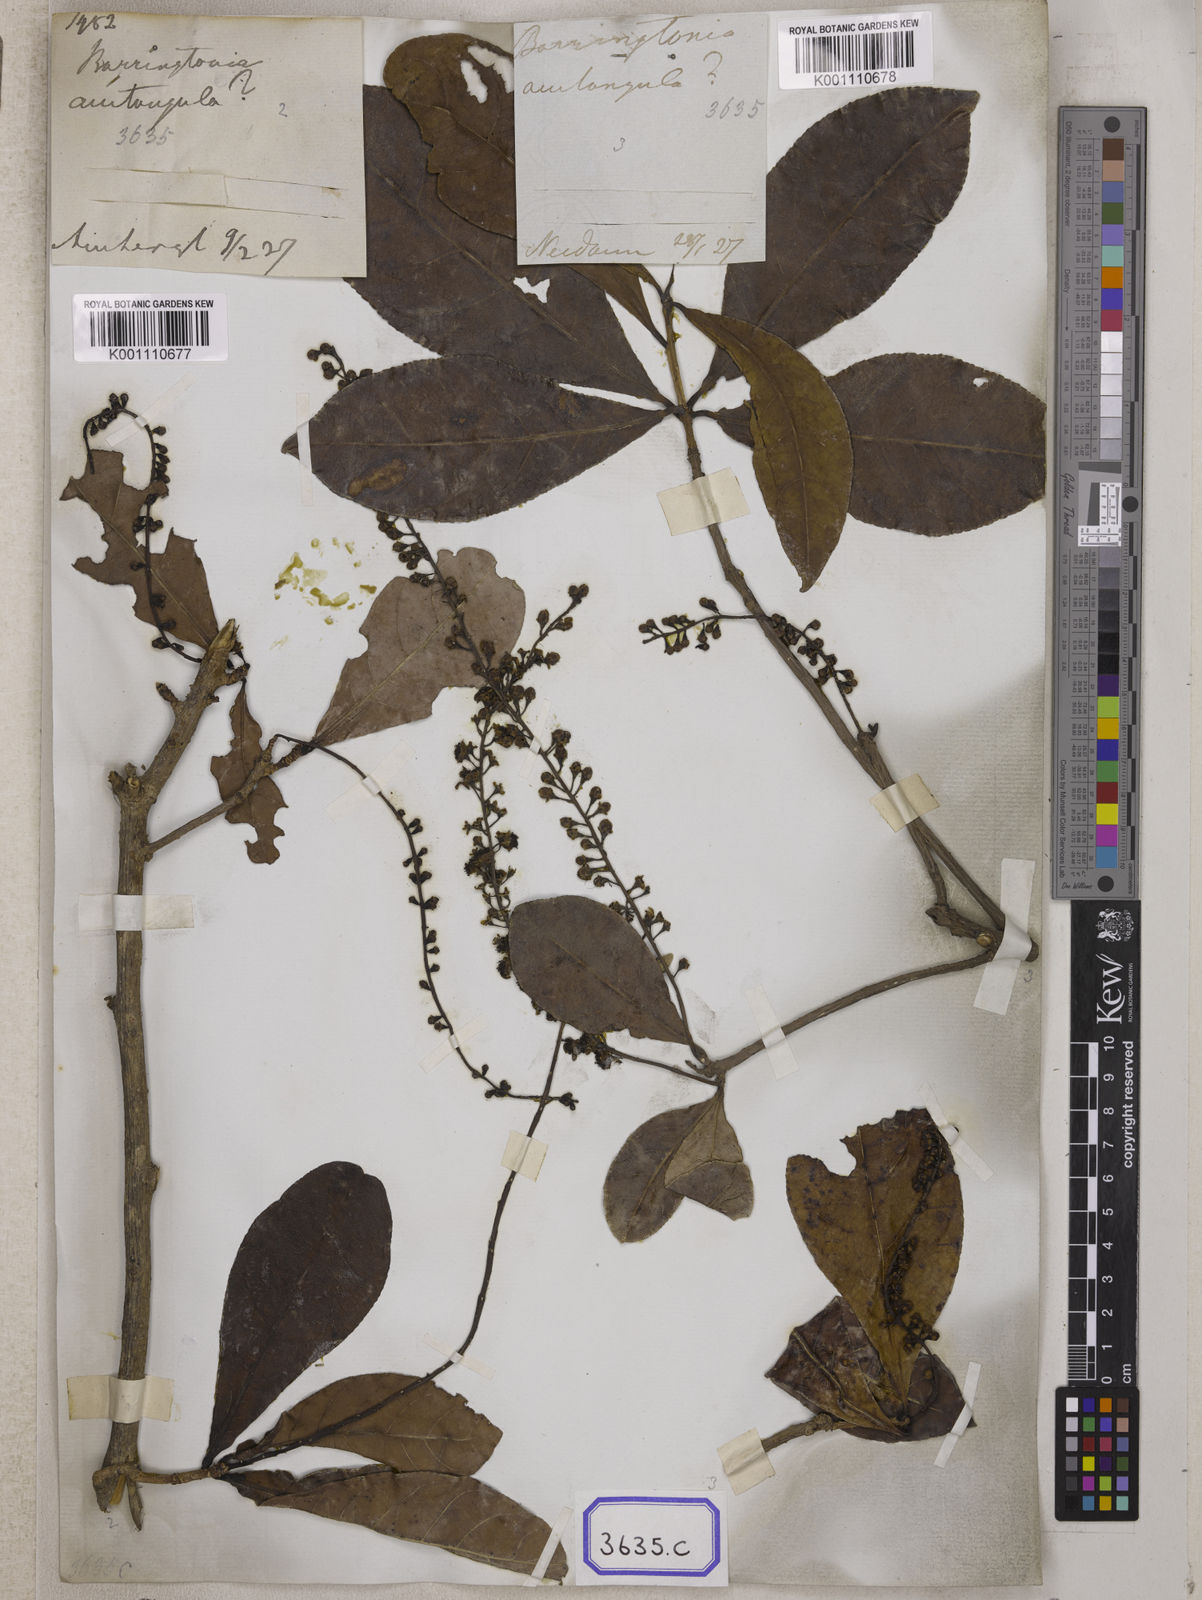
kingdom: Plantae
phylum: Tracheophyta
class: Magnoliopsida
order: Ericales
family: Lecythidaceae
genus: Barringtonia
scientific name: Barringtonia acutangula
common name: Freshwater mangrove
